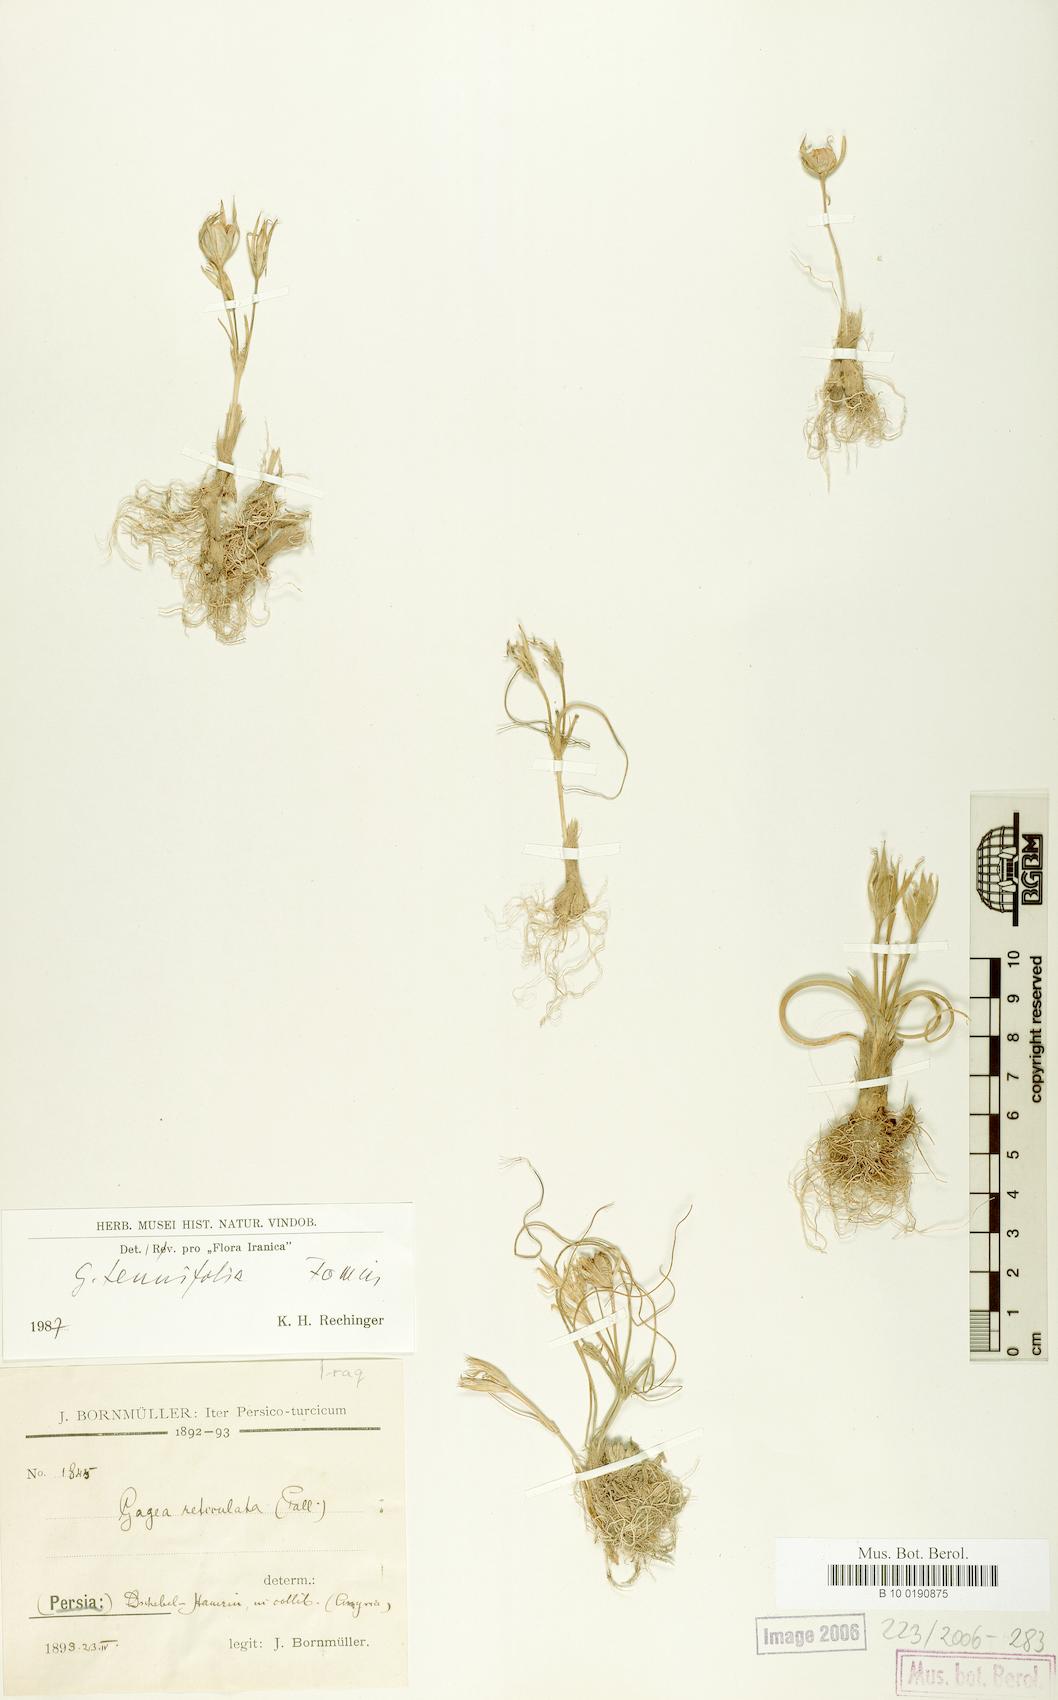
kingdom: Plantae
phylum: Tracheophyta
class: Liliopsida
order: Liliales
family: Liliaceae
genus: Gagea
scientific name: Gagea reticulata
